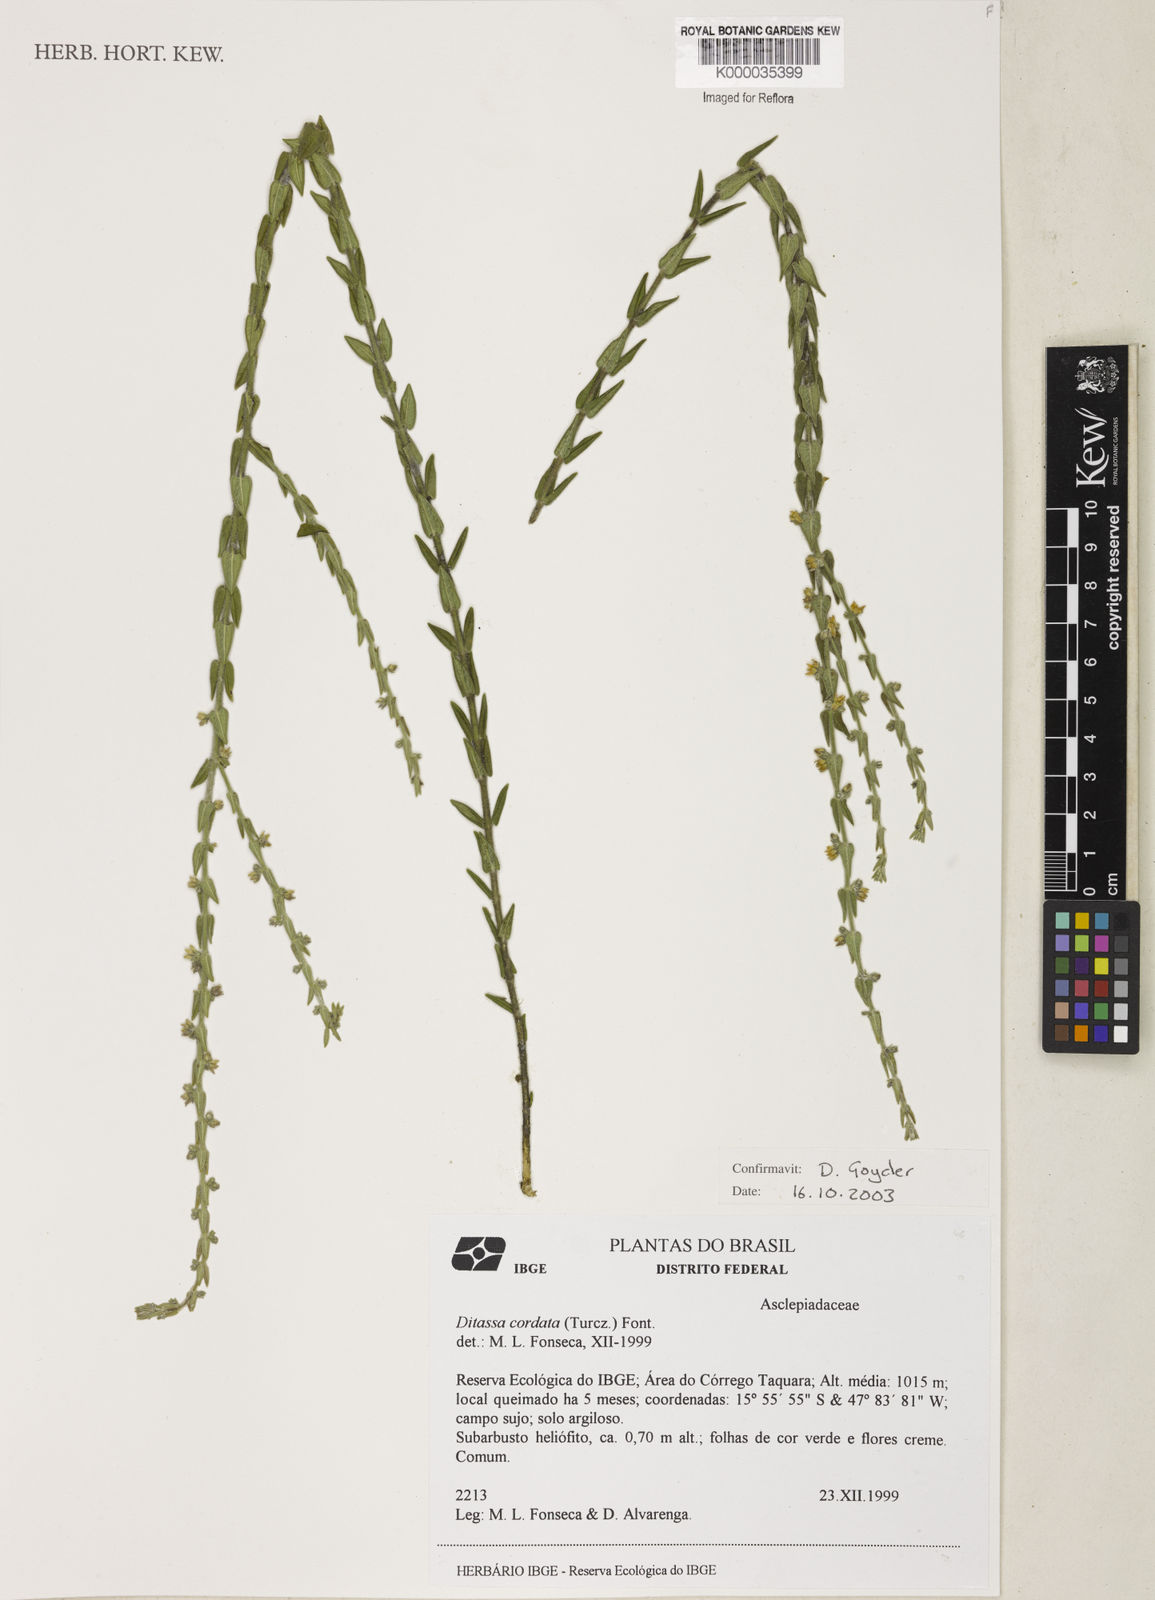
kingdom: Plantae
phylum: Tracheophyta
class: Magnoliopsida
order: Gentianales
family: Apocynaceae
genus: Minaria
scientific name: Minaria cordata
